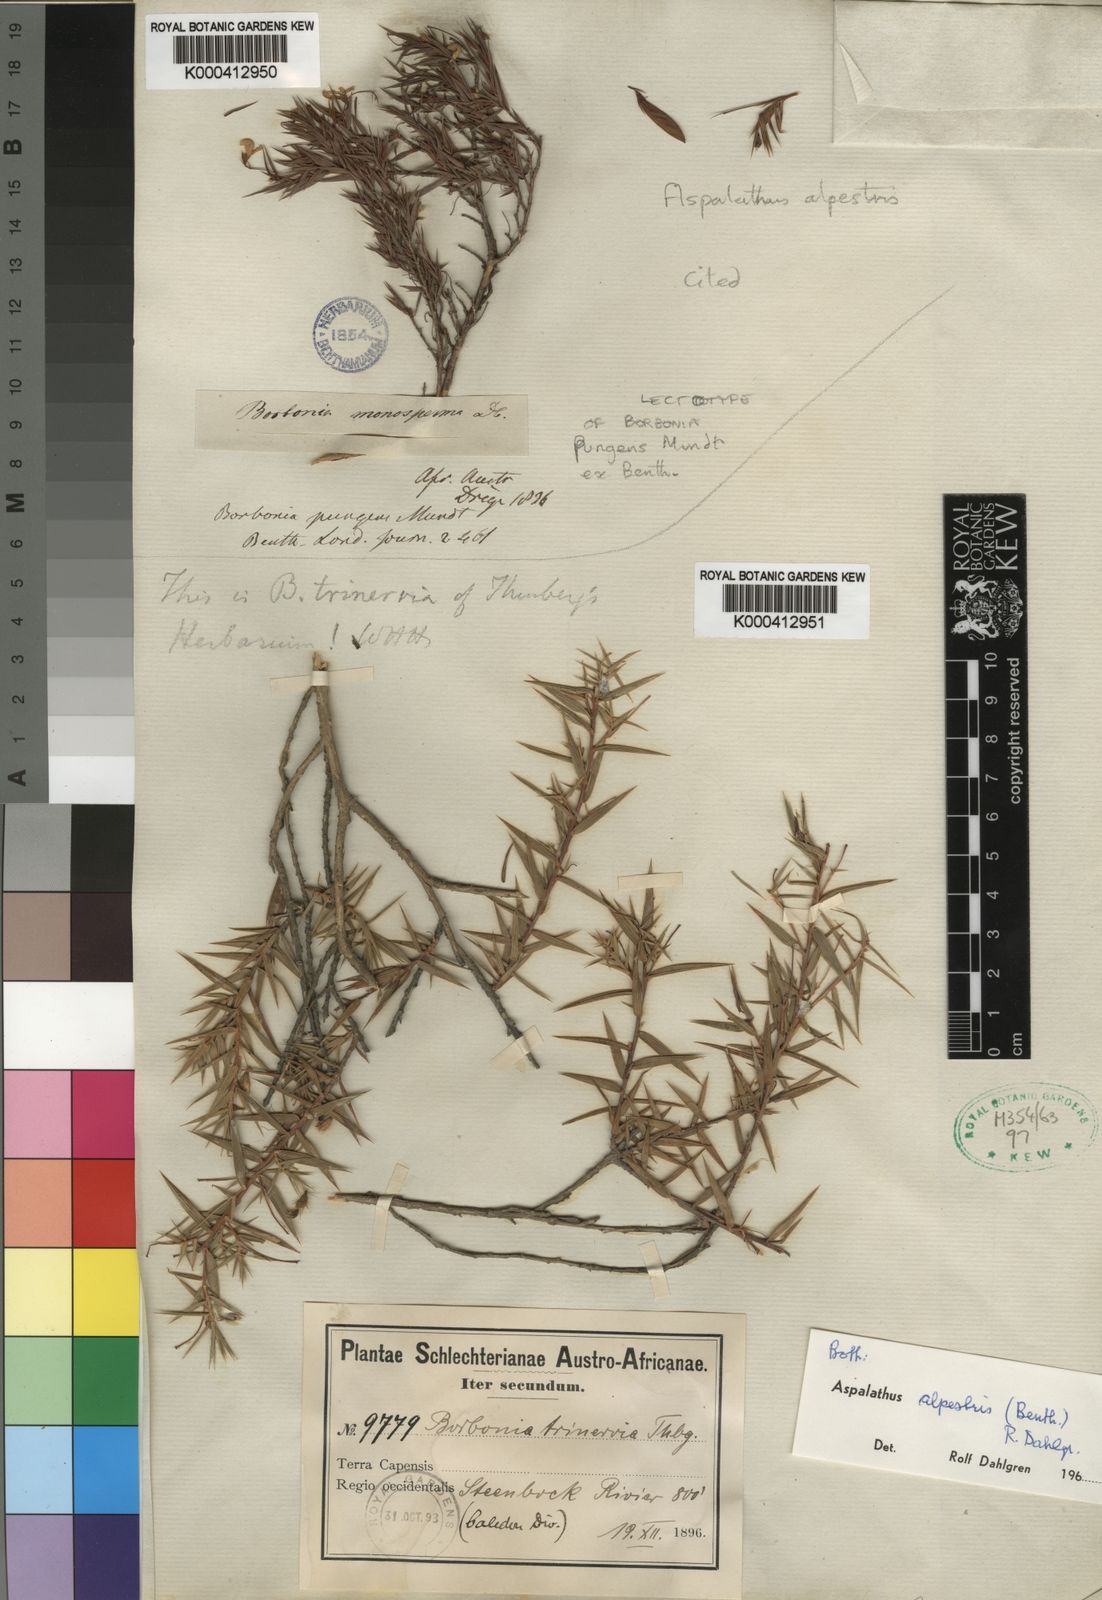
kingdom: Plantae
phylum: Tracheophyta
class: Magnoliopsida
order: Fabales
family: Fabaceae
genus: Aspalathus
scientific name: Aspalathus alpestris
